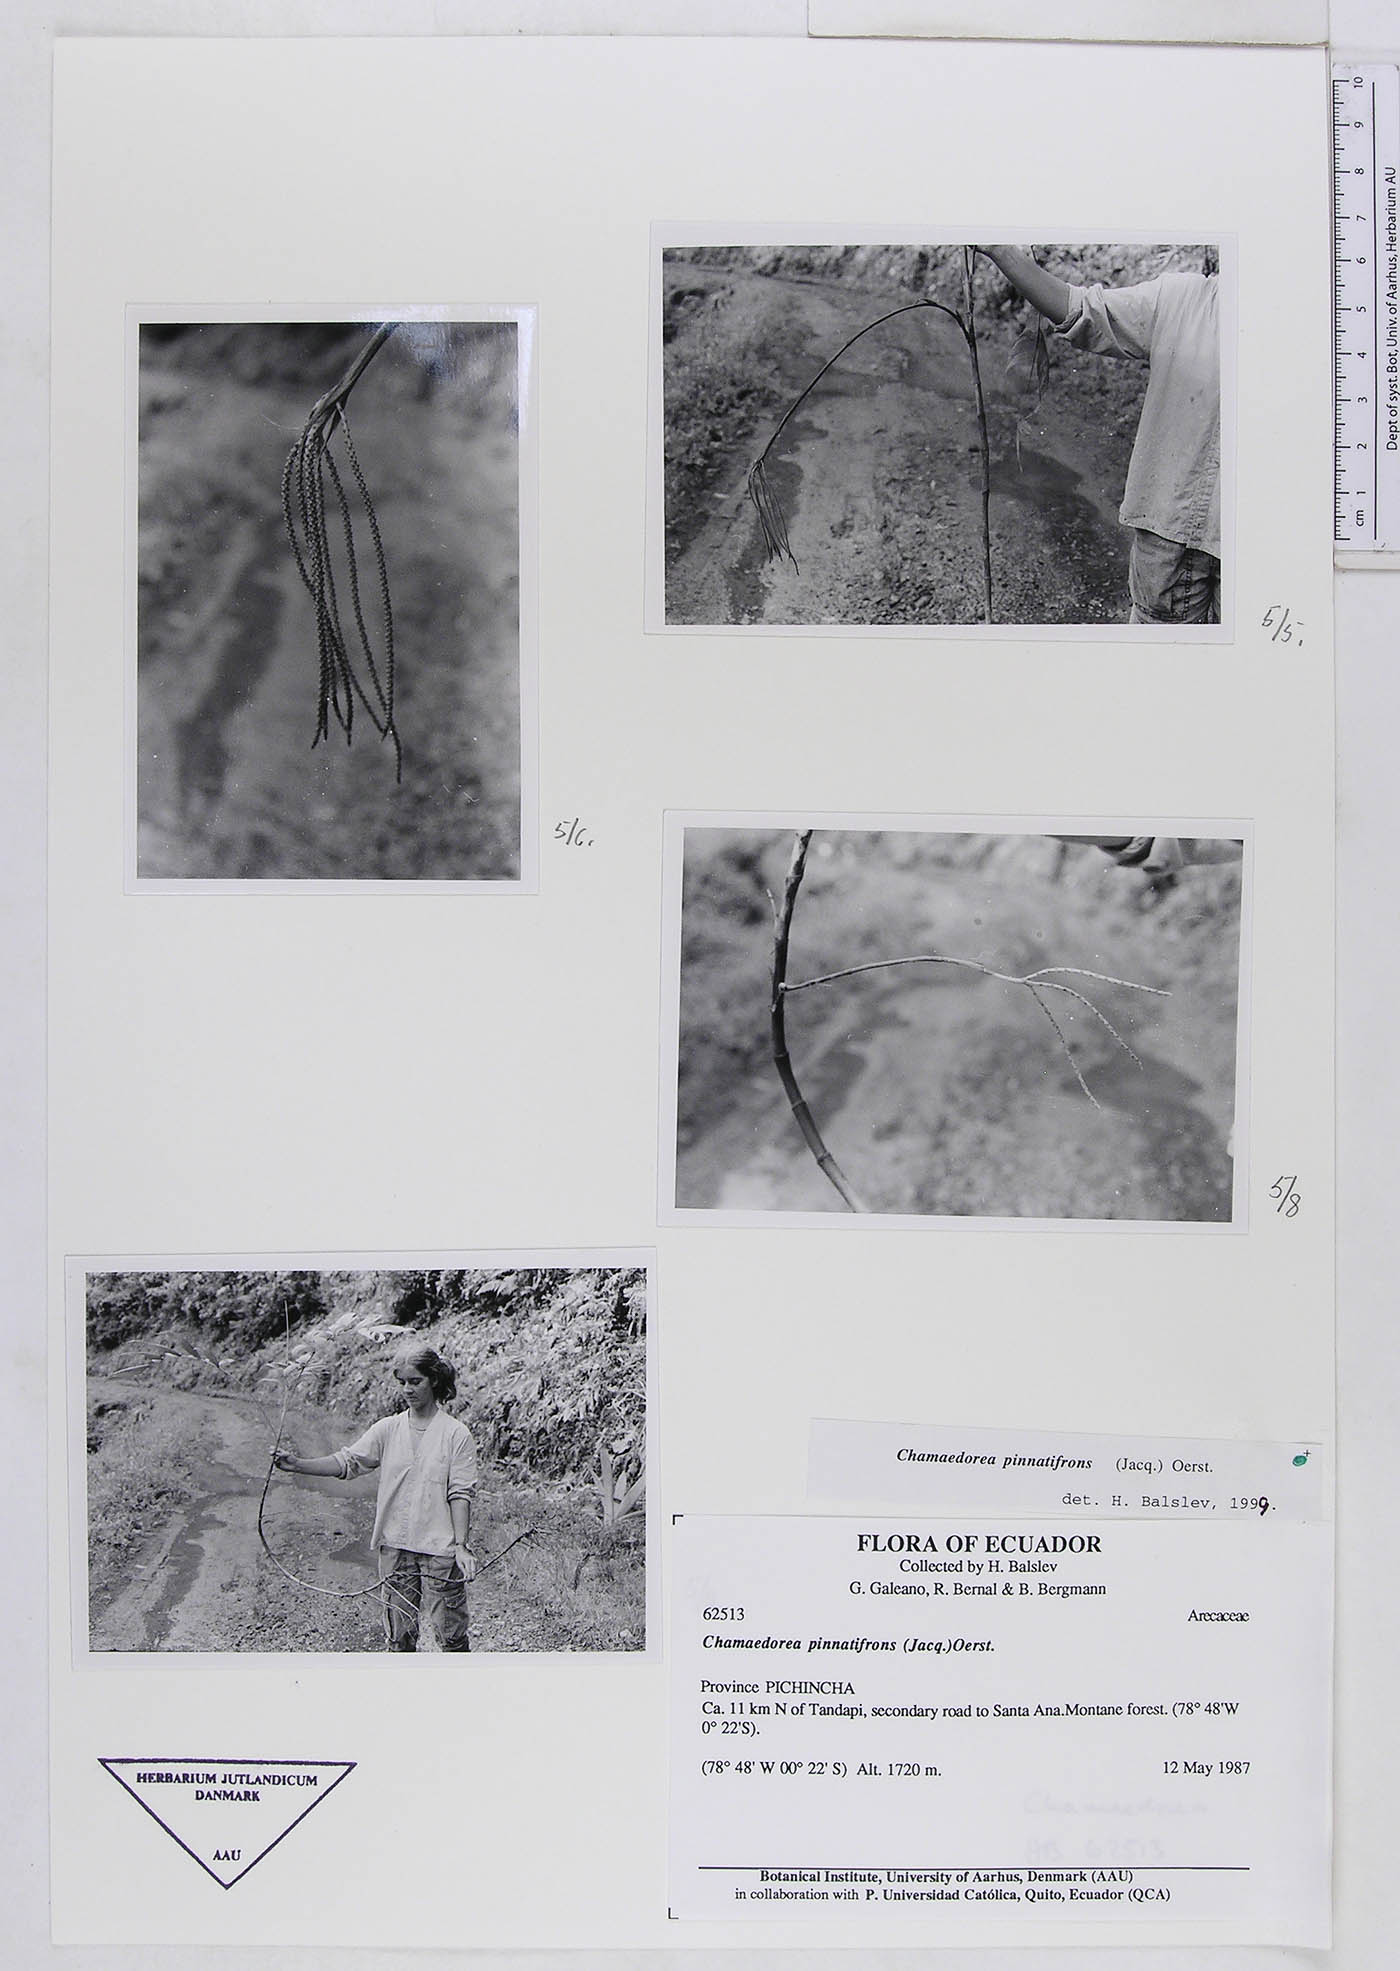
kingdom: Plantae
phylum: Tracheophyta
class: Liliopsida
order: Arecales
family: Arecaceae
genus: Chamaedorea
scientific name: Chamaedorea pinnatifrons
